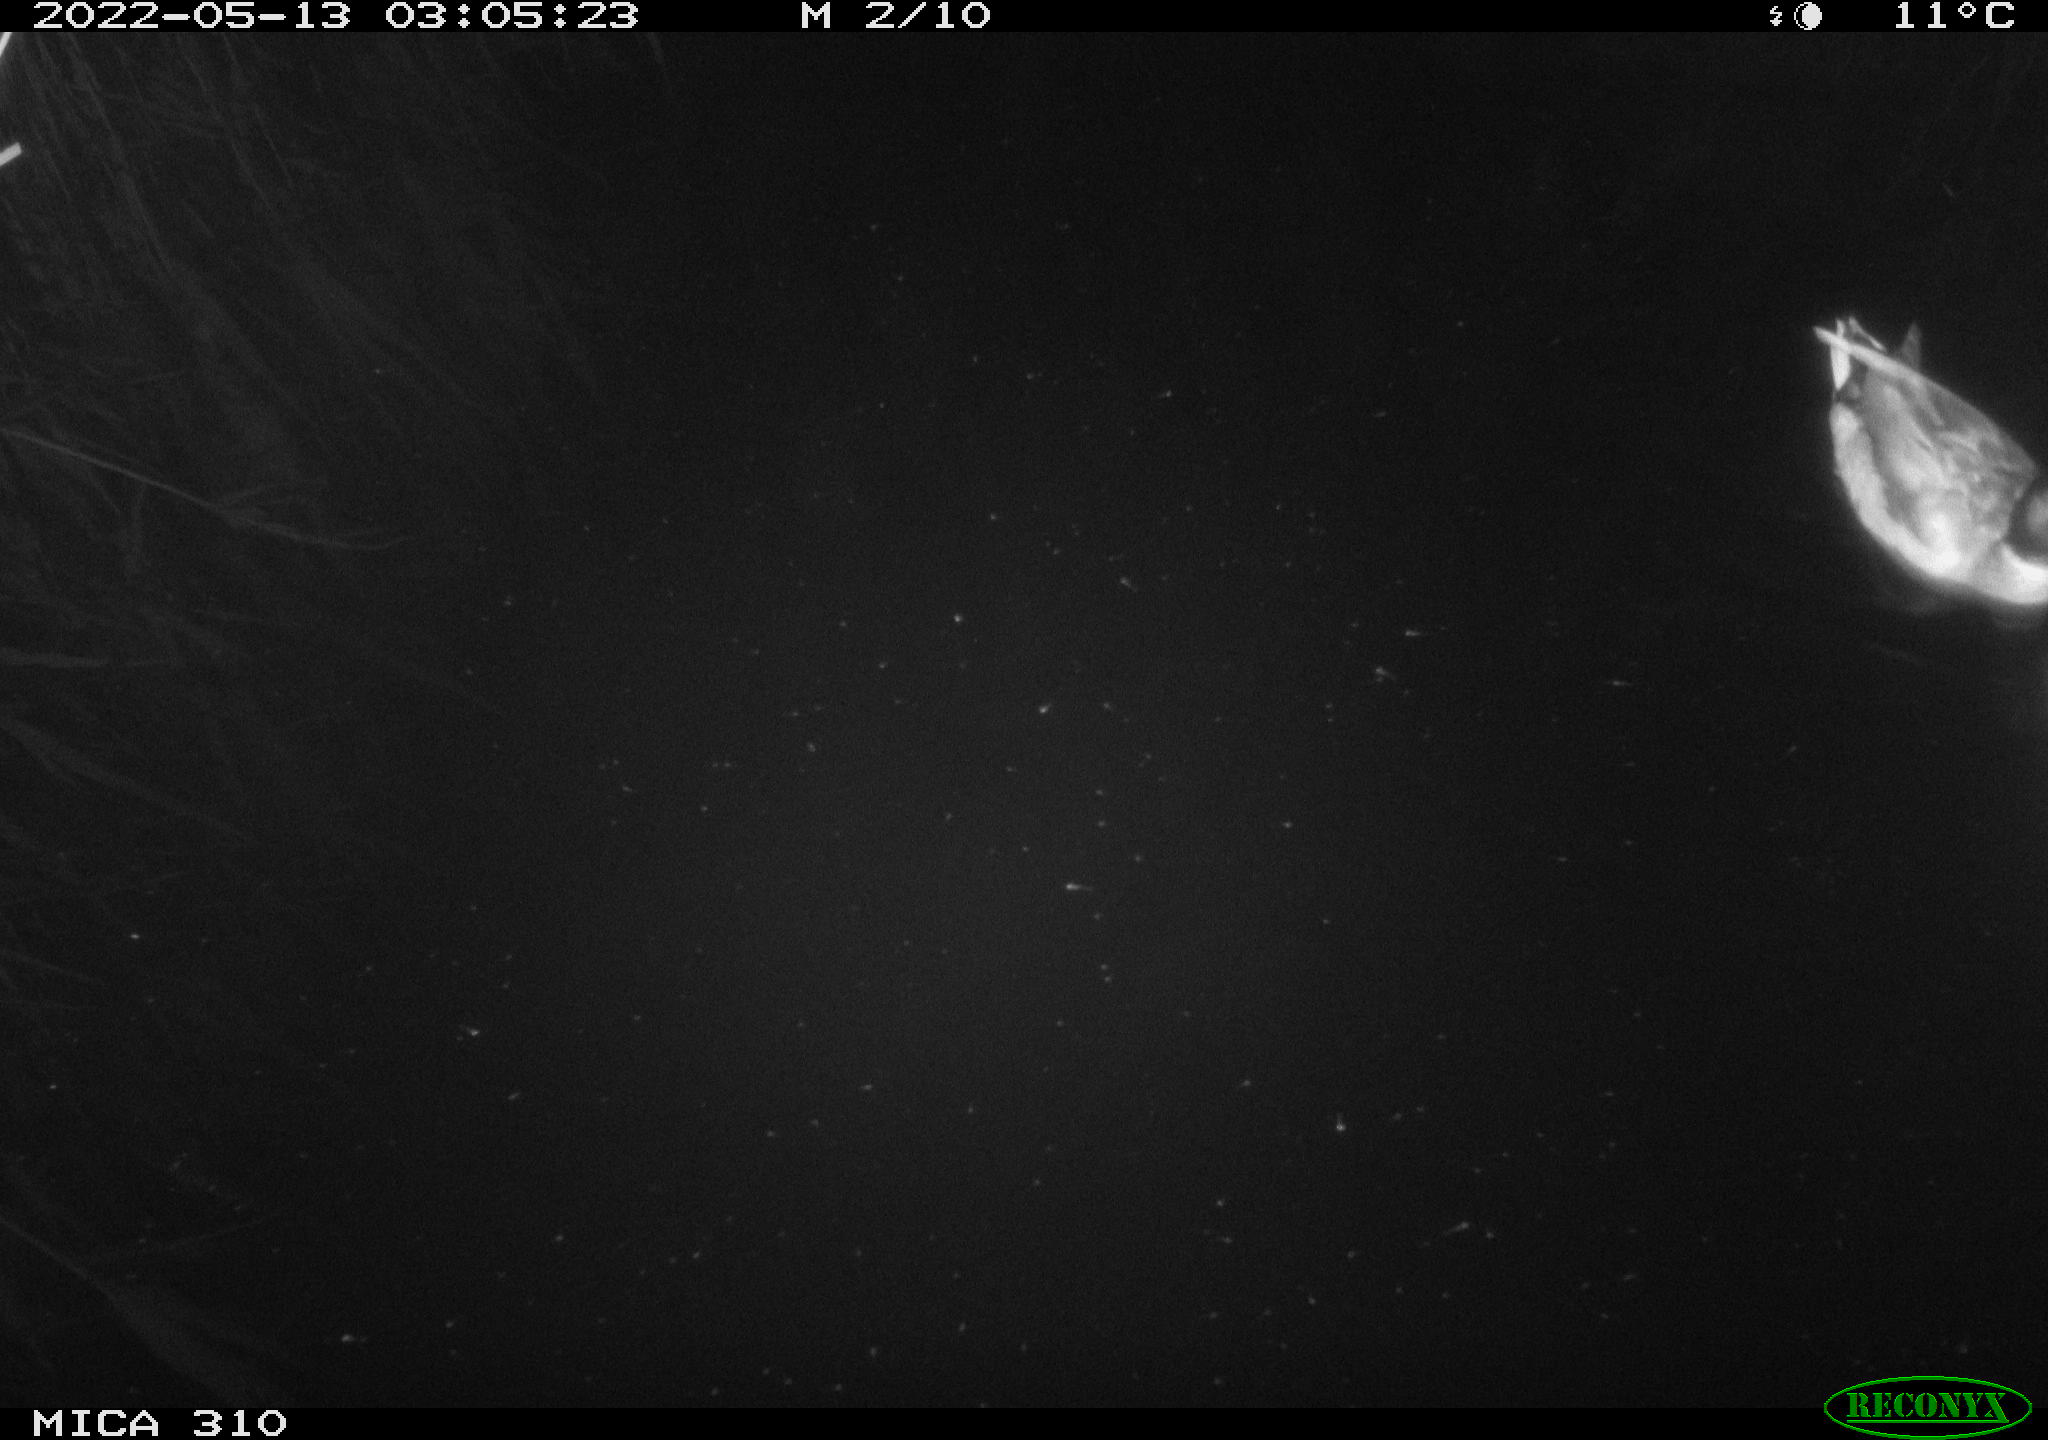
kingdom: Animalia
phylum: Chordata
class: Aves
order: Anseriformes
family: Anatidae
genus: Anas
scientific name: Anas platyrhynchos
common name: Mallard
